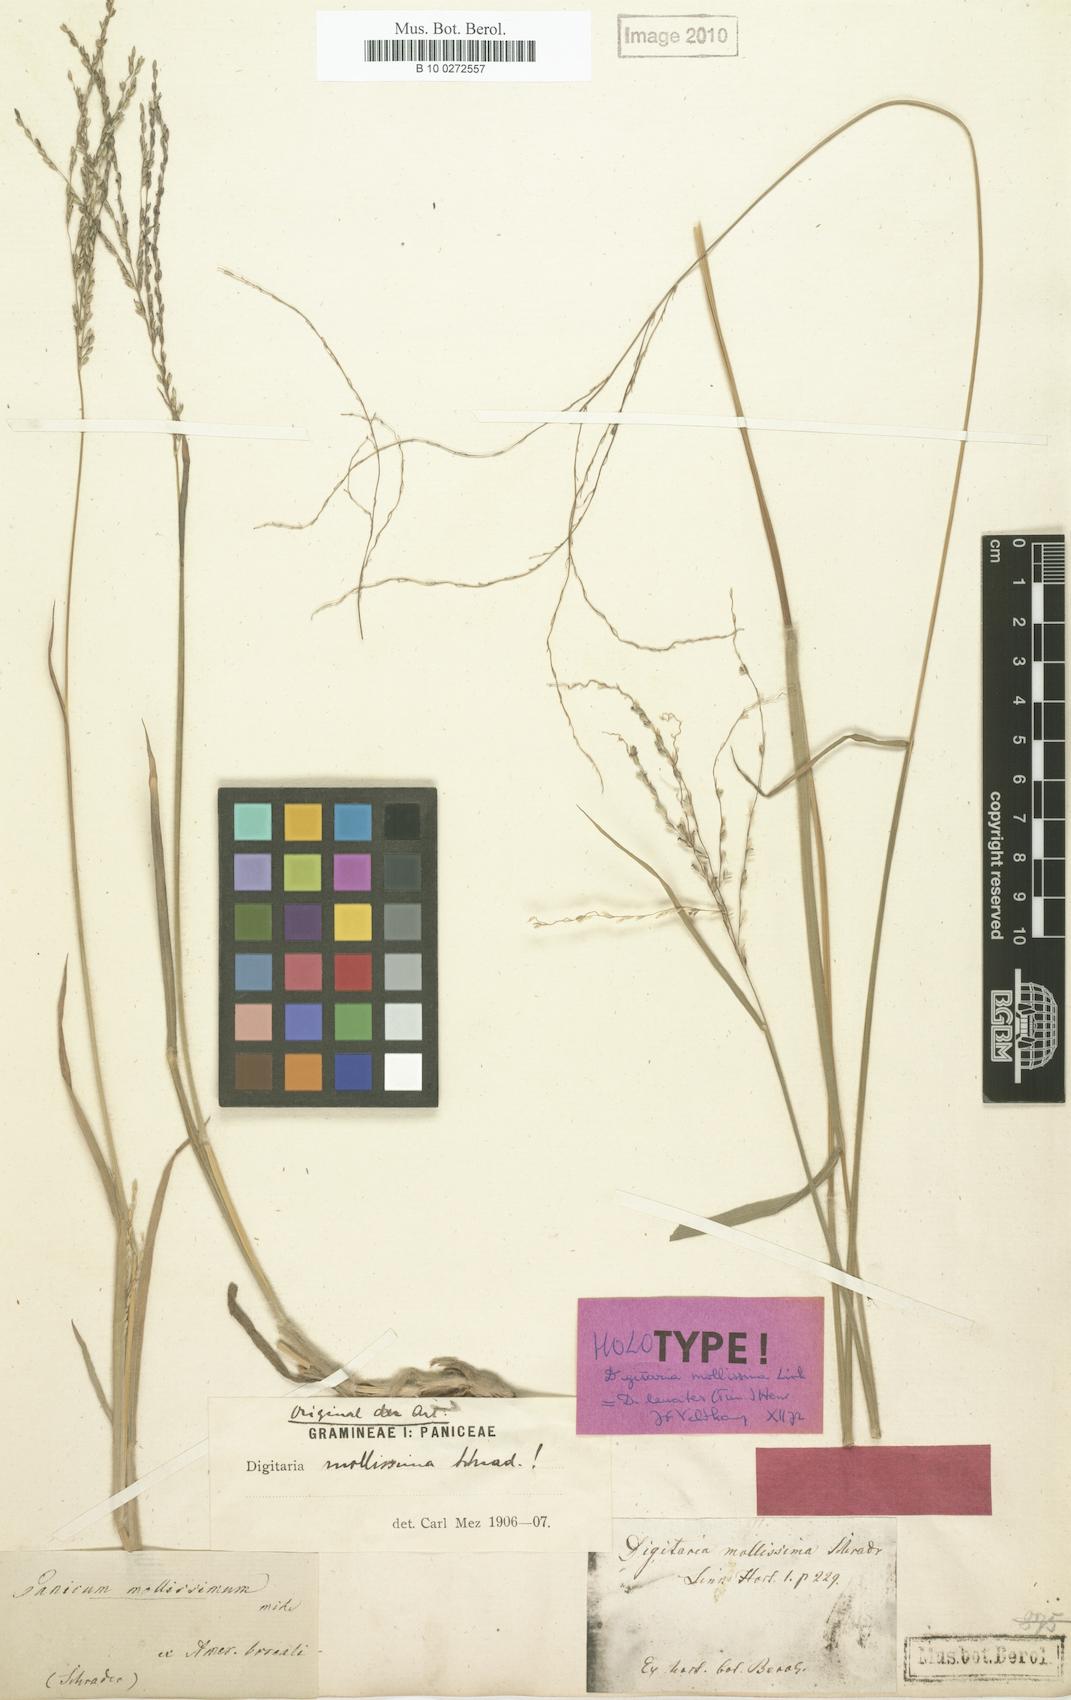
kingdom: Plantae
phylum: Tracheophyta
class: Liliopsida
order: Poales
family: Poaceae
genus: Digitaria
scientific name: Digitaria leucites
